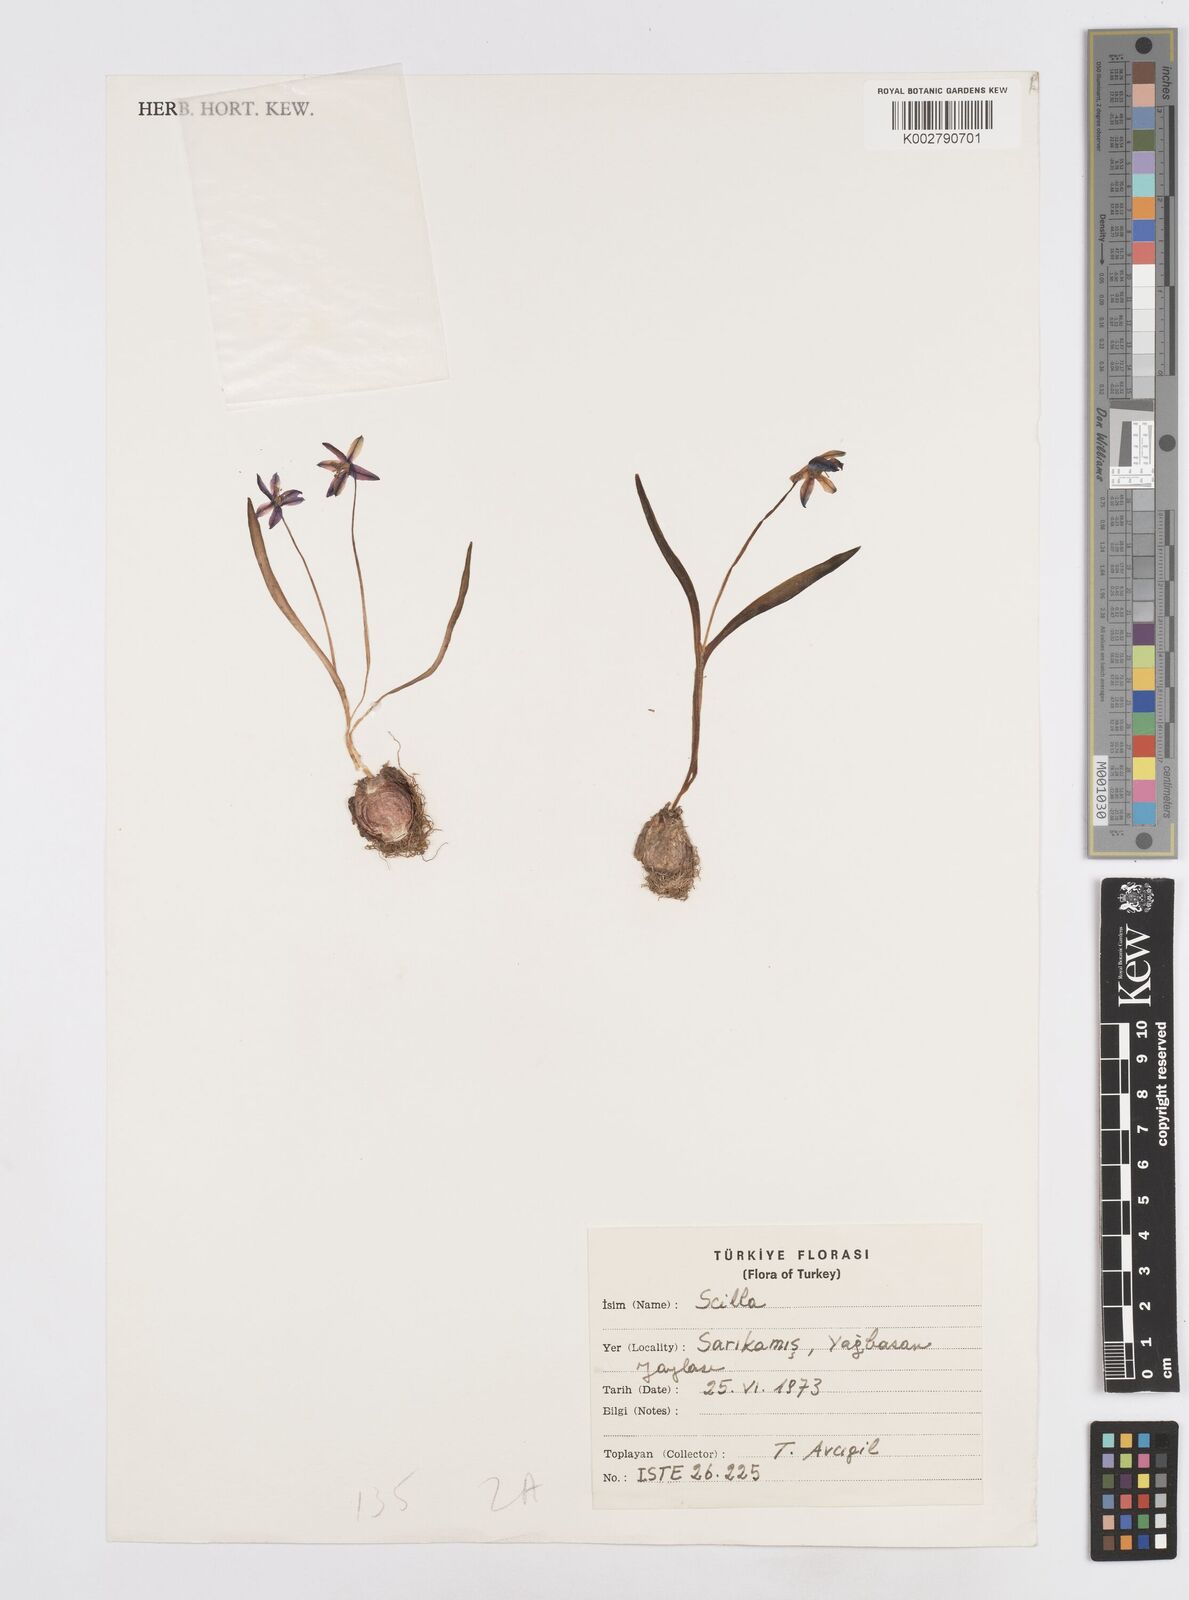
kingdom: Plantae
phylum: Tracheophyta
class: Liliopsida
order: Asparagales
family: Asparagaceae
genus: Scilla
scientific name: Scilla siberica
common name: Siberian squill
